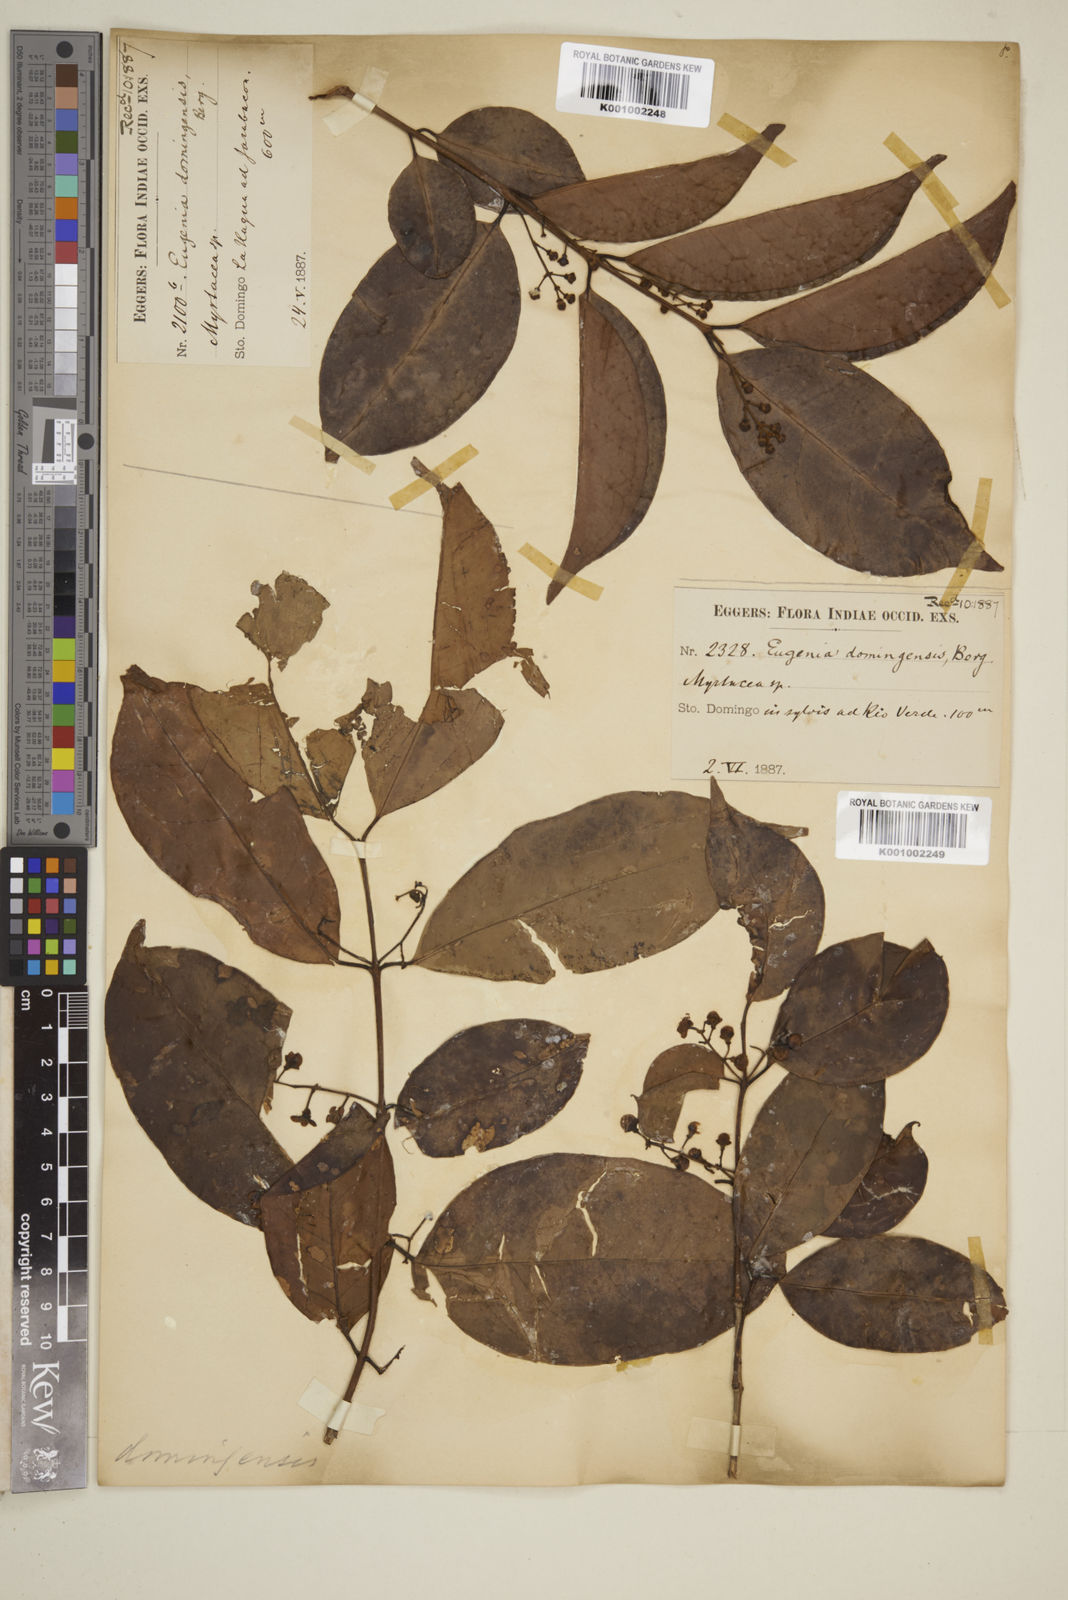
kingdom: Plantae
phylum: Tracheophyta
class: Magnoliopsida
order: Myrtales
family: Myrtaceae
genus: Eugenia
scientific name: Eugenia domingensis
